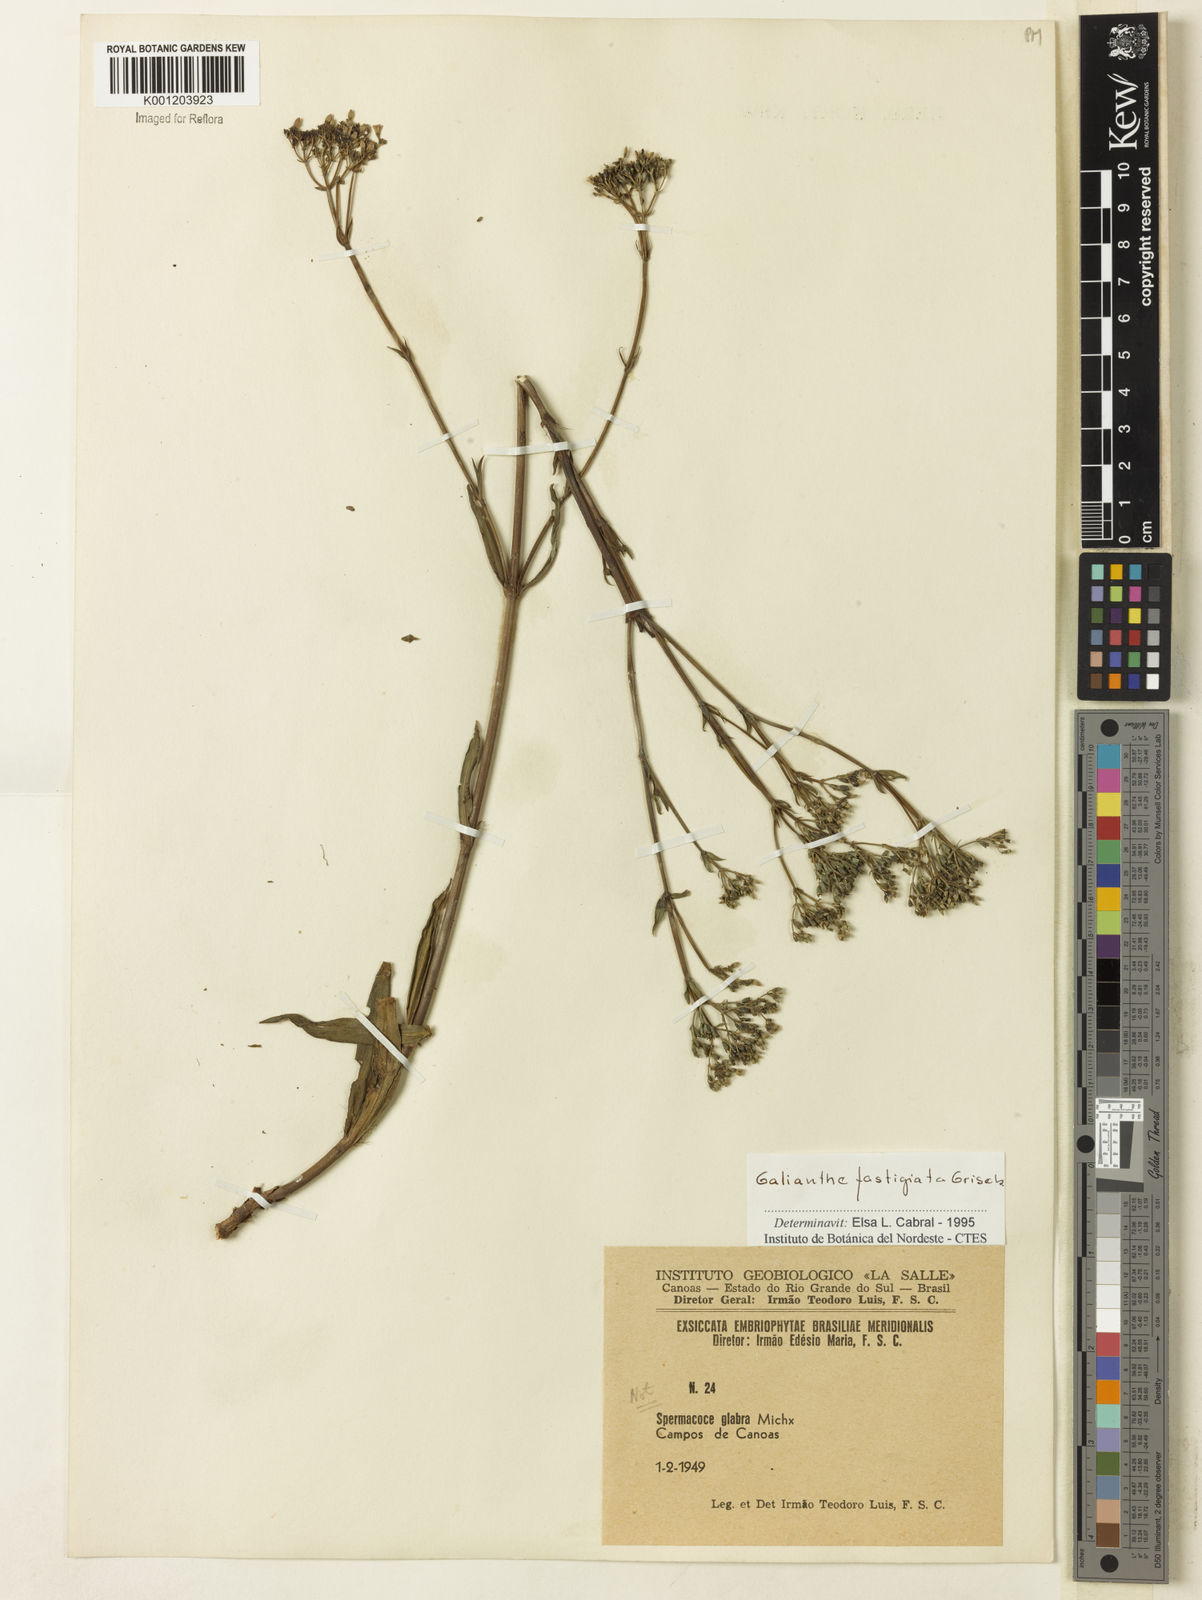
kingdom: Plantae
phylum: Tracheophyta
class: Magnoliopsida
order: Gentianales
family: Rubiaceae
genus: Galianthe
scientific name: Galianthe fastigiata
